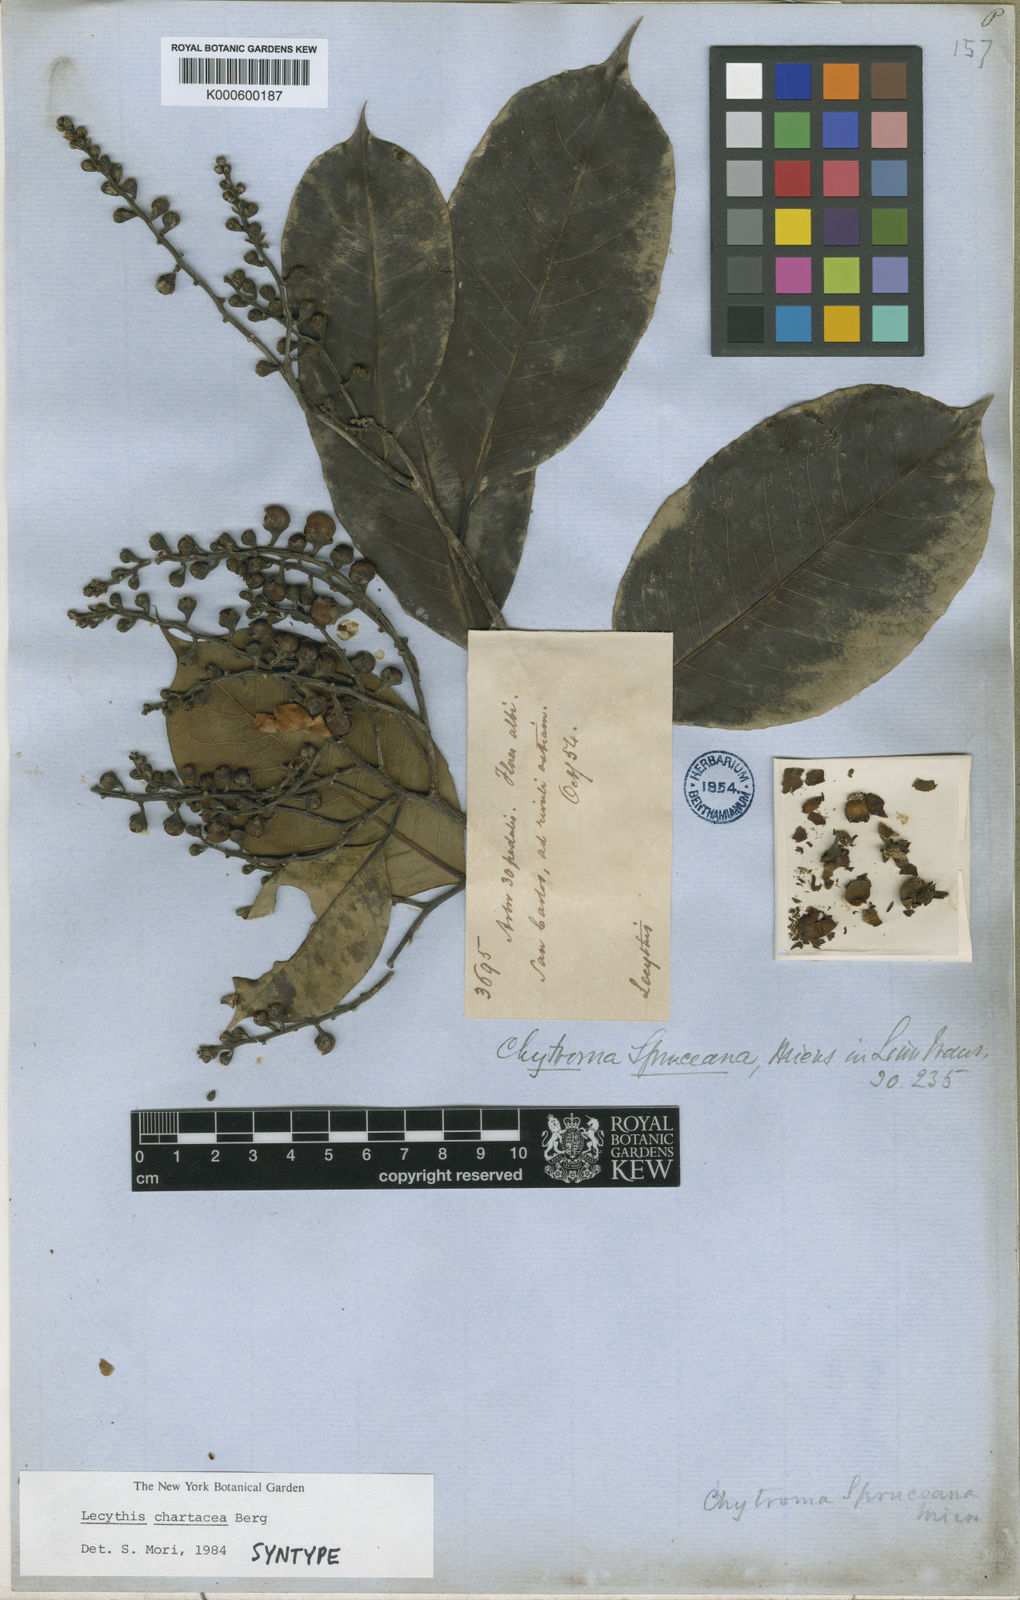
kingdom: Plantae
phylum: Tracheophyta
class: Magnoliopsida
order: Ericales
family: Lecythidaceae
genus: Lecythis
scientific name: Lecythis chartacea
